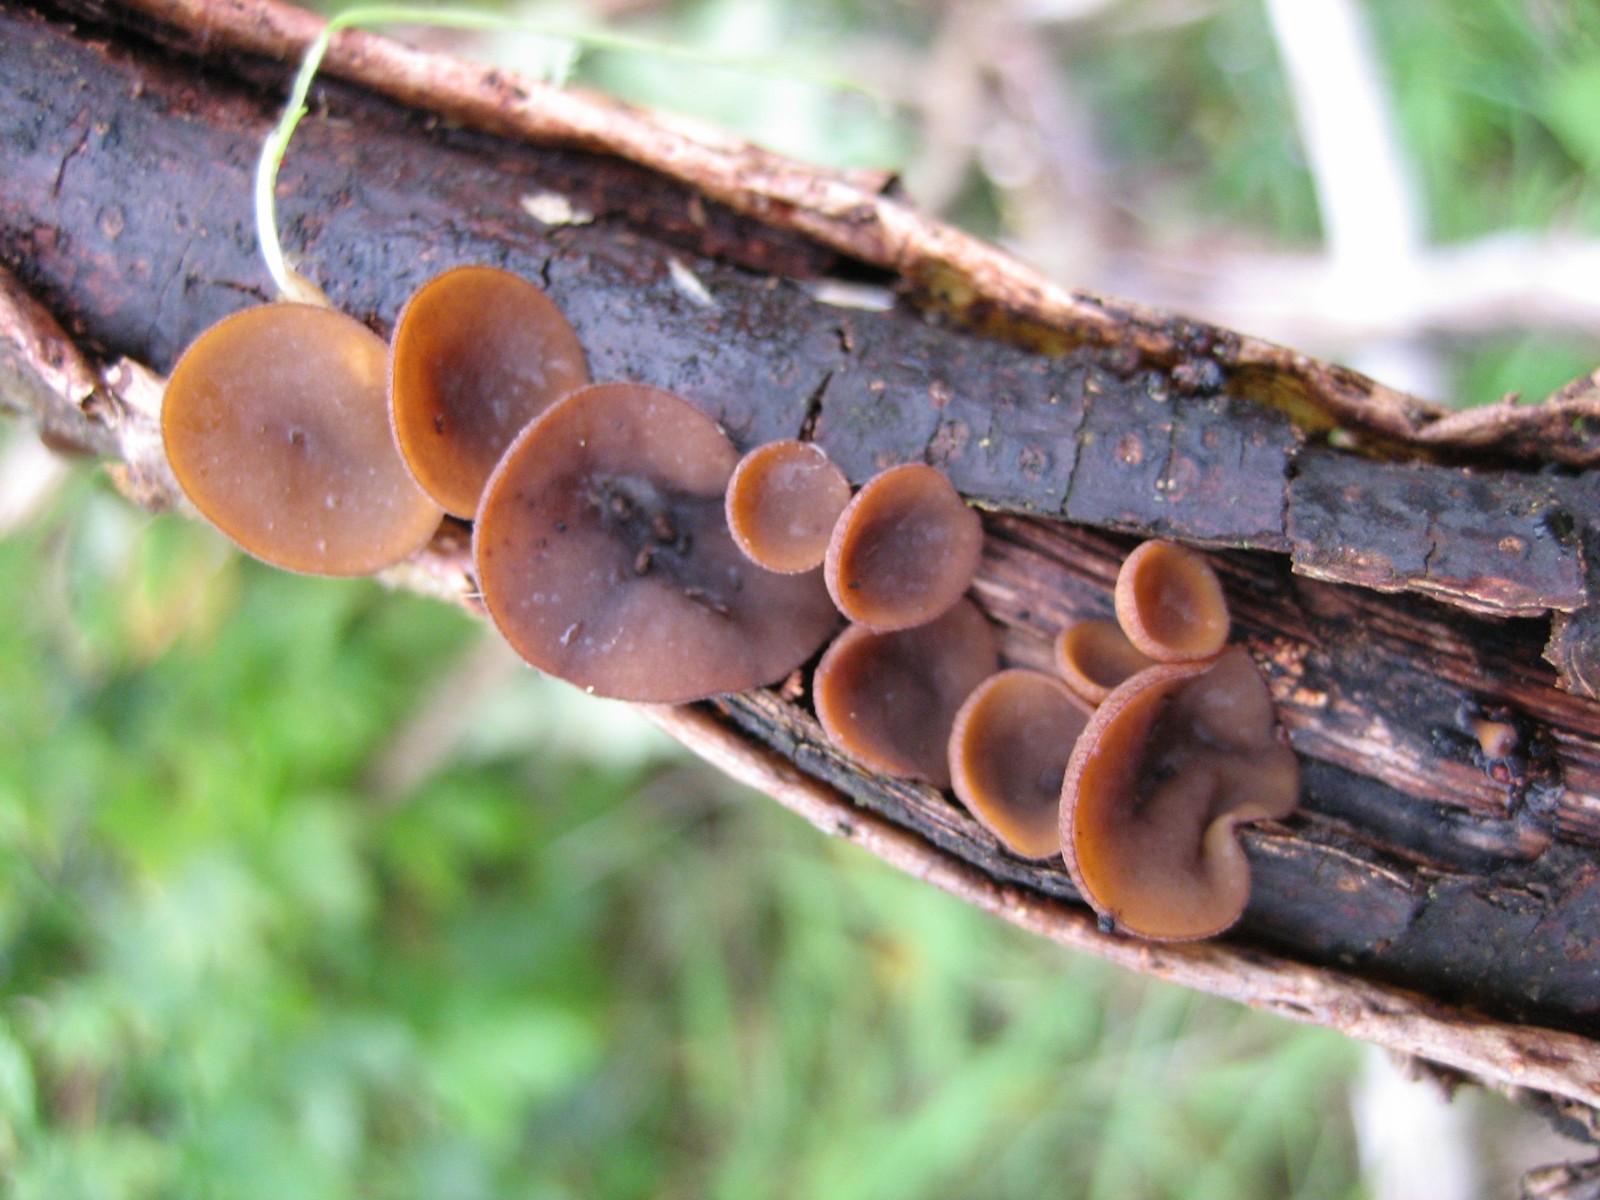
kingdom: Fungi
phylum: Ascomycota
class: Leotiomycetes
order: Helotiales
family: Rutstroemiaceae
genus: Rutstroemia
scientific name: Rutstroemia firma
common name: gren-brunskive
